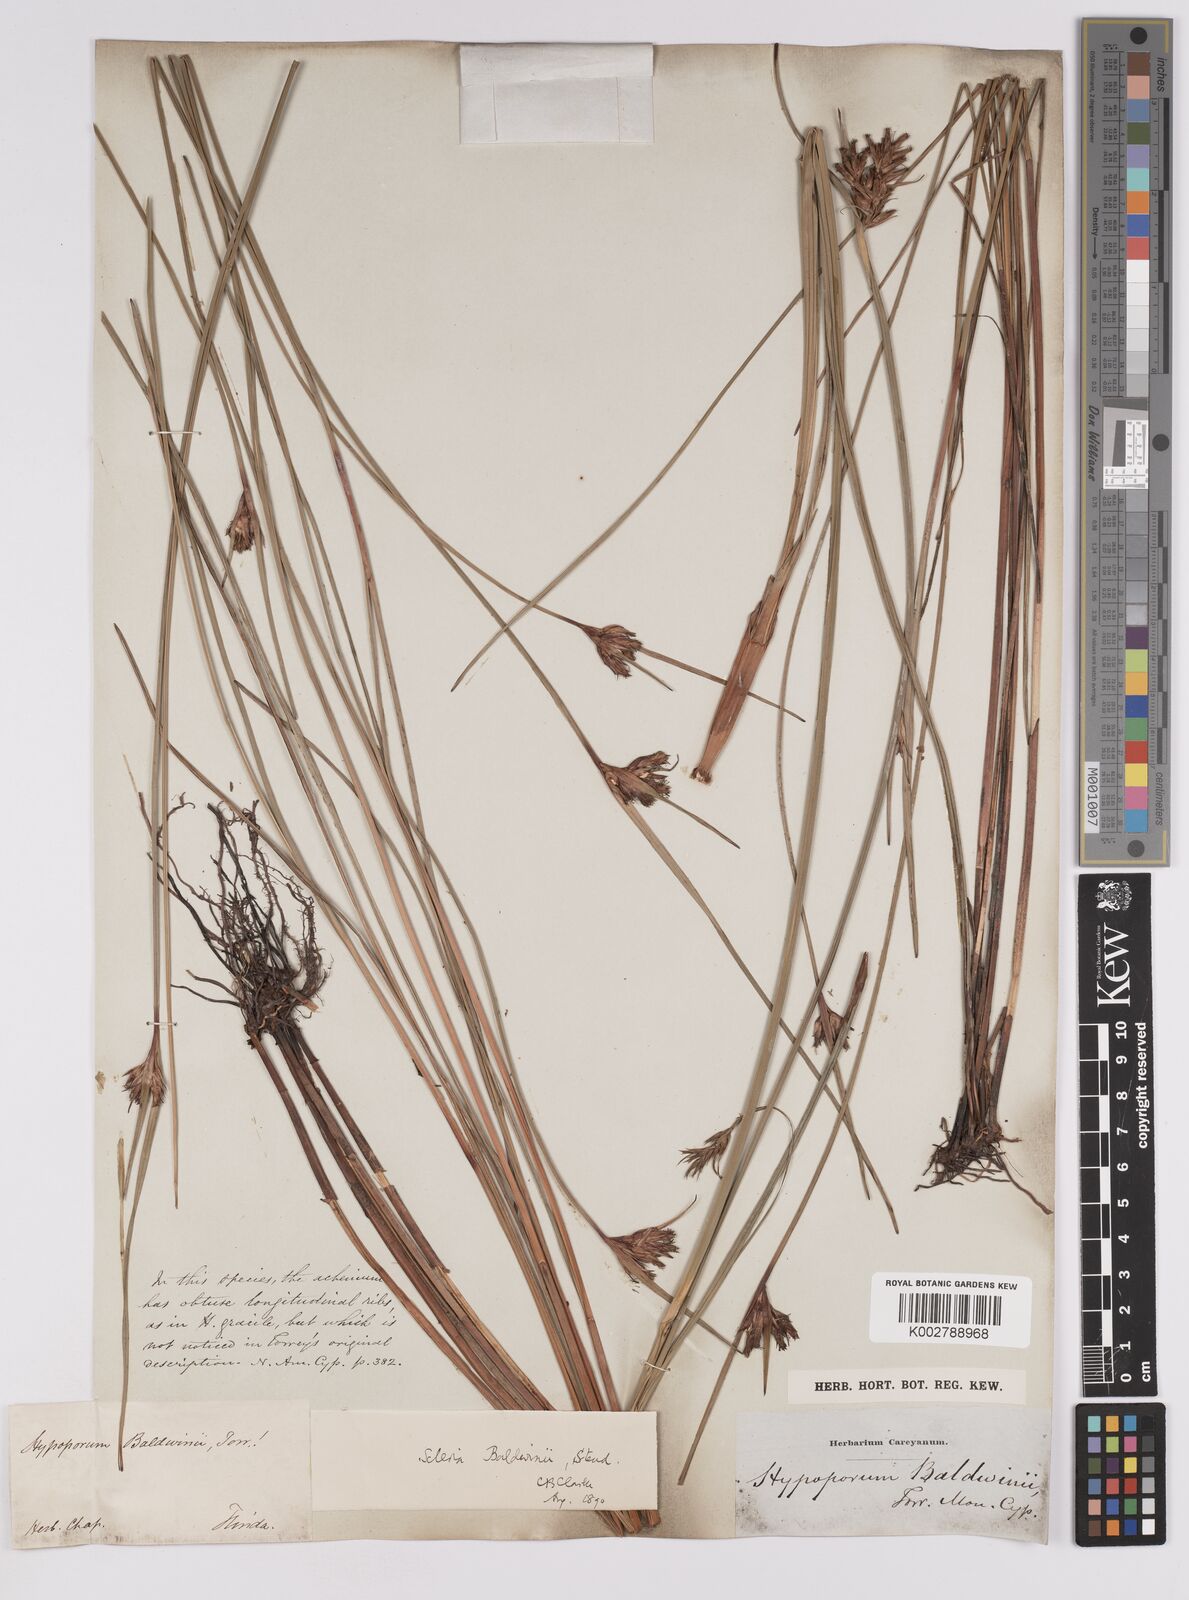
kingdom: Plantae
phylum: Tracheophyta
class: Liliopsida
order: Poales
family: Cyperaceae
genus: Scleria
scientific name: Scleria baldwinii
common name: Baldwin's nutrush
